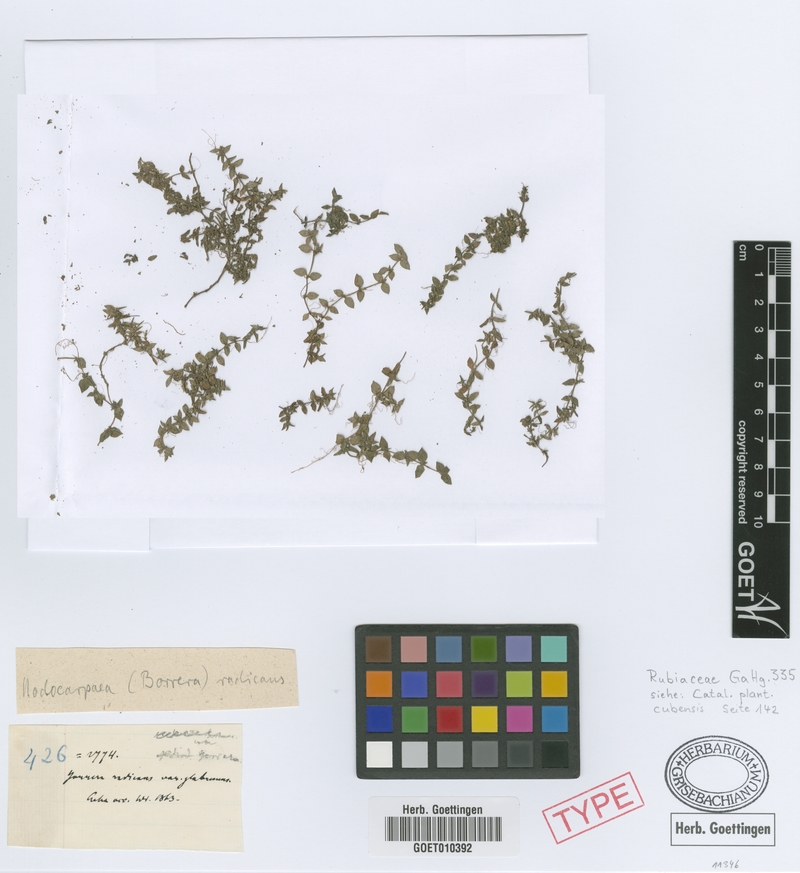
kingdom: Plantae
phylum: Tracheophyta
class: Magnoliopsida
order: Gentianales
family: Rubiaceae
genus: Nodocarpaea
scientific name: Nodocarpaea radicans
